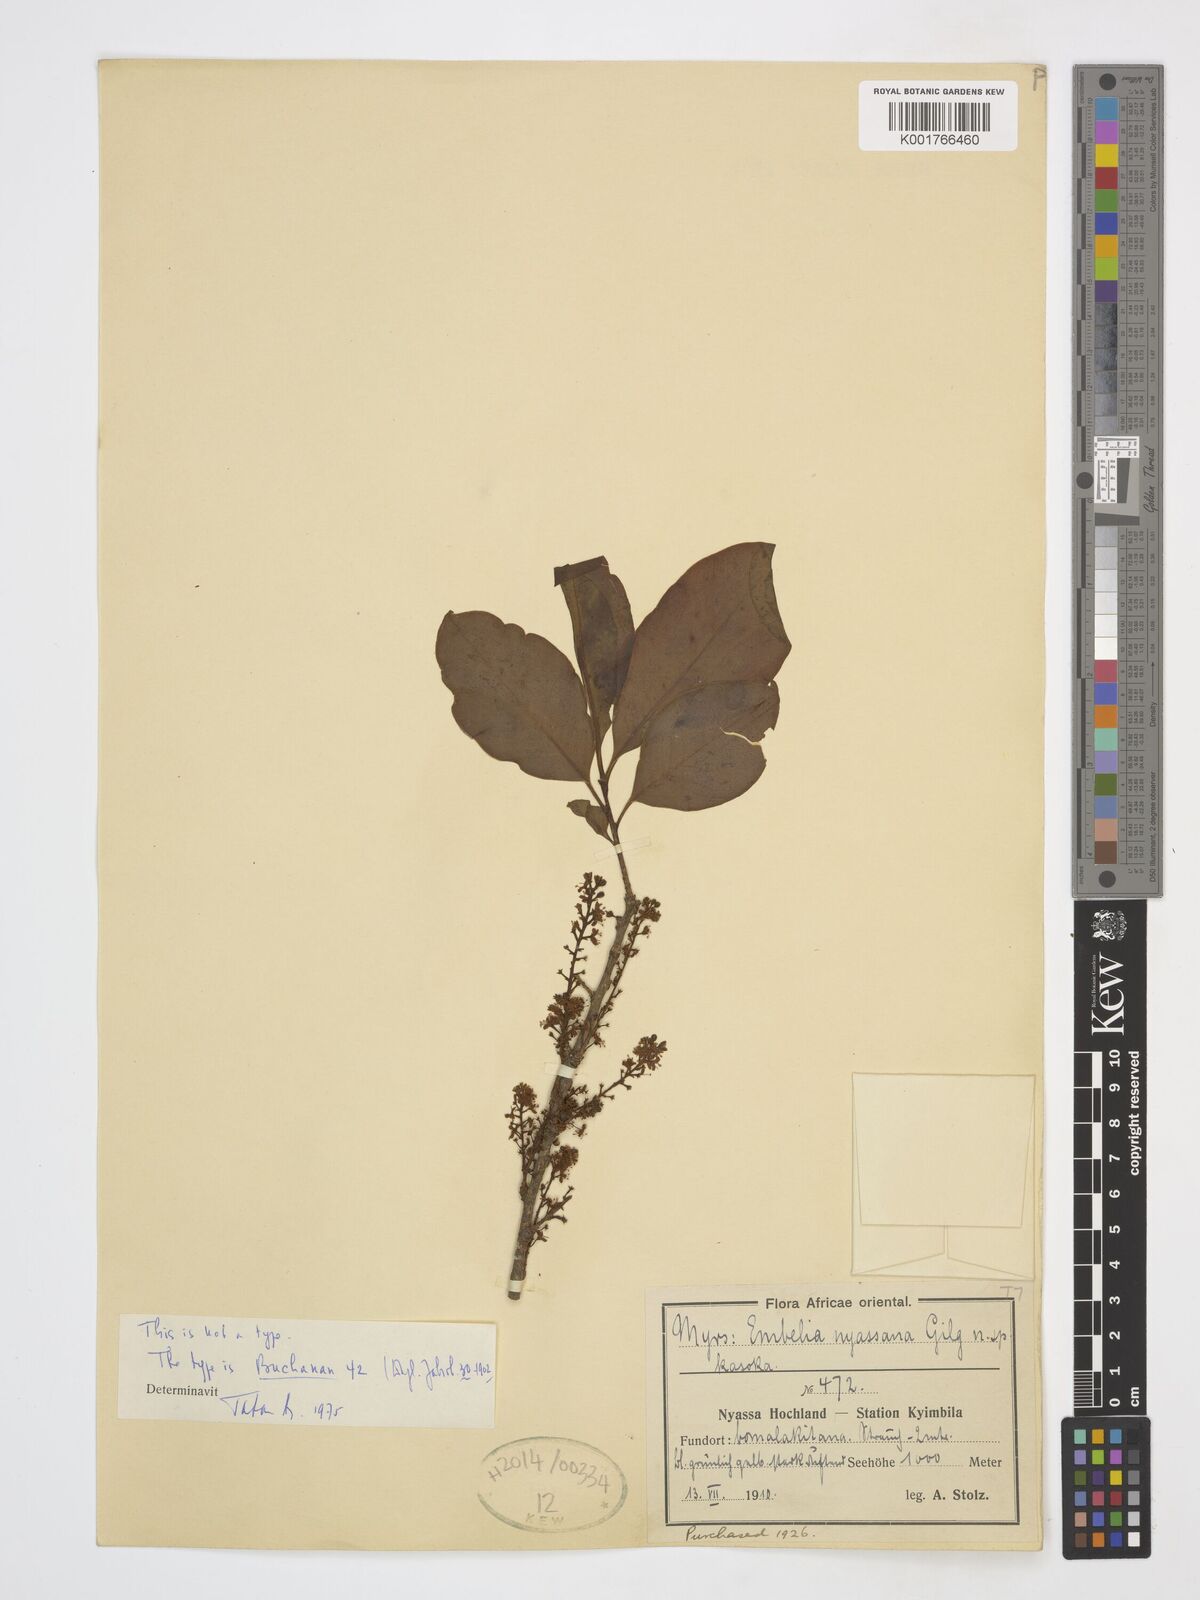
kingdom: Plantae
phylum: Tracheophyta
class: Magnoliopsida
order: Ericales
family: Primulaceae
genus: Embelia
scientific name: Embelia schimperi
